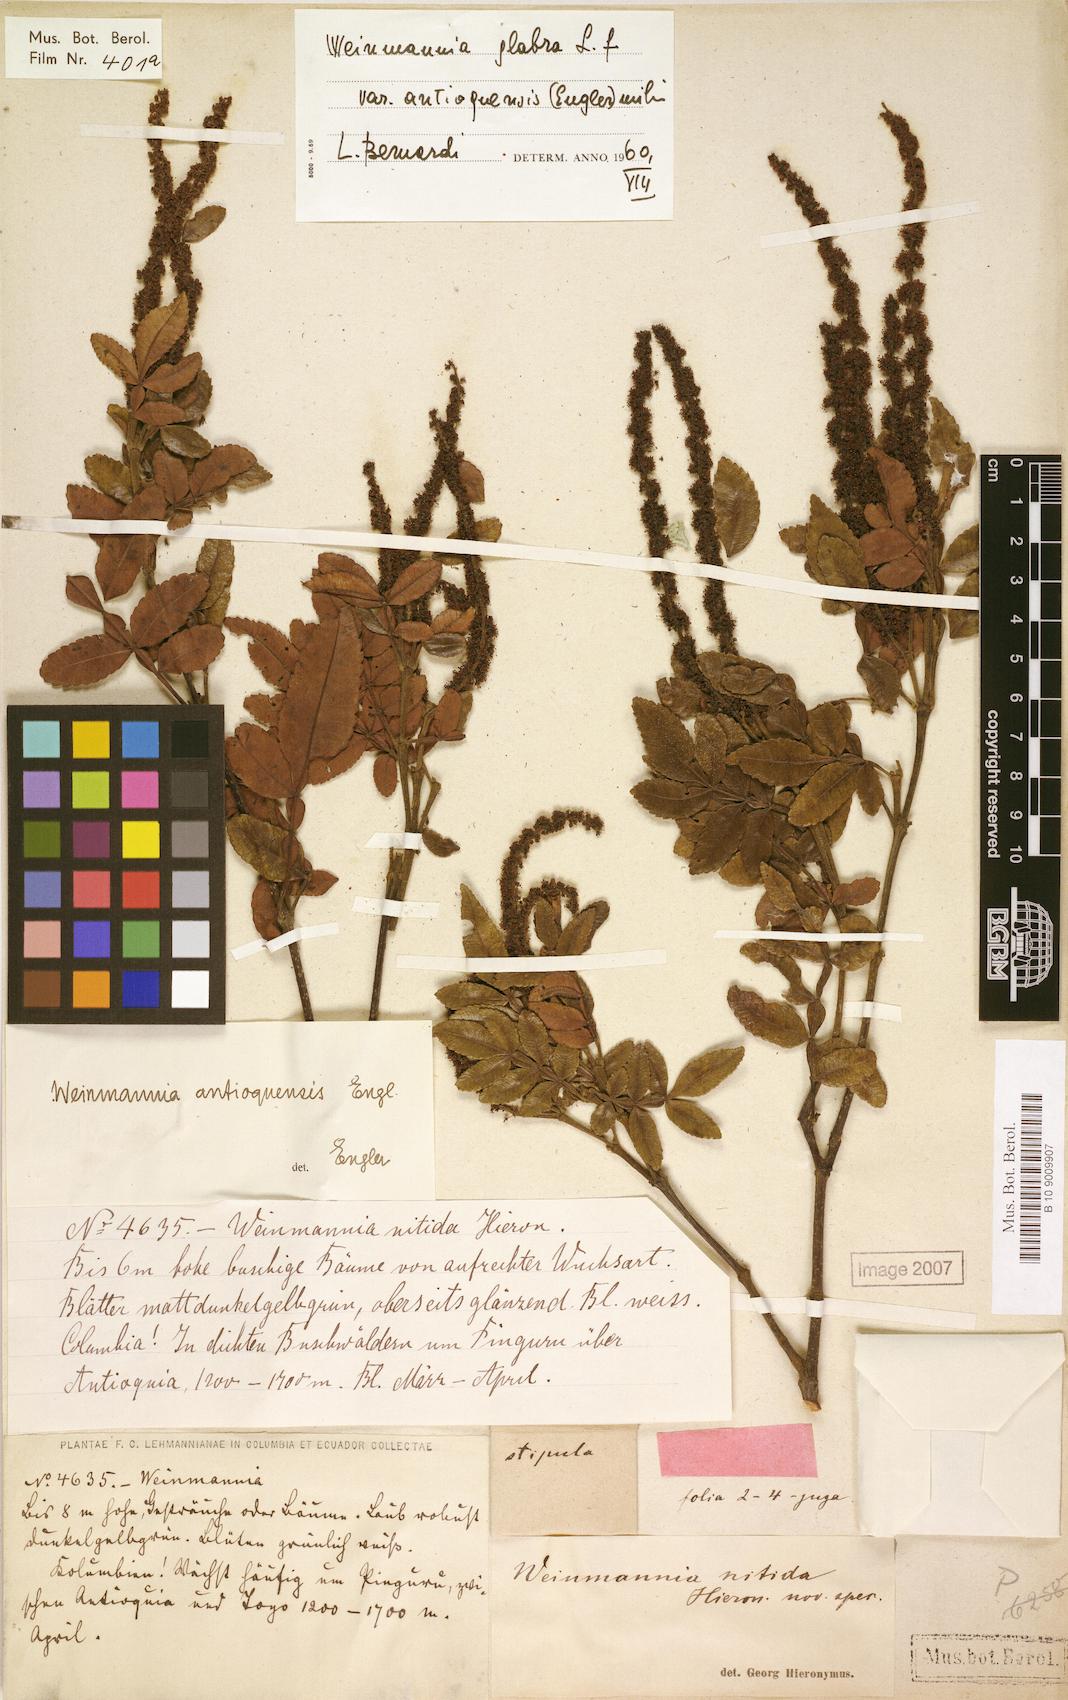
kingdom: Plantae
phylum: Tracheophyta
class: Magnoliopsida
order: Oxalidales
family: Cunoniaceae
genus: Weinmannia
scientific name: Weinmannia pinnata
